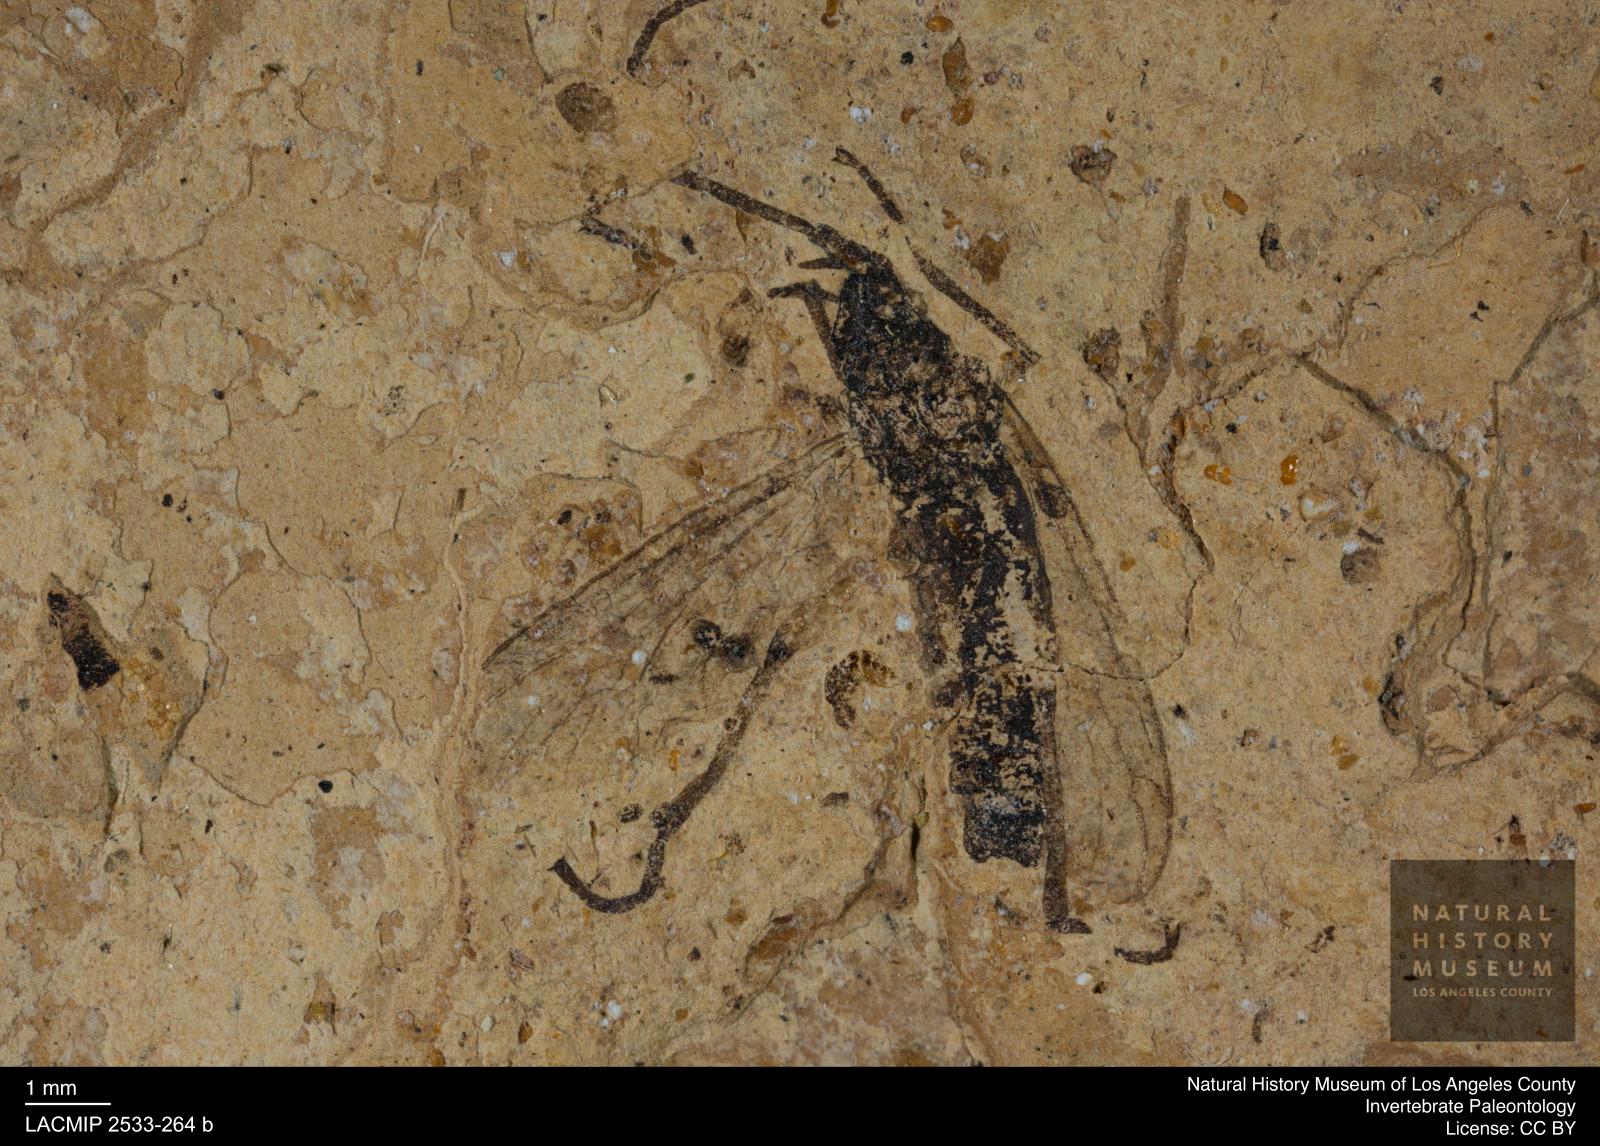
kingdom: Animalia
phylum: Arthropoda
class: Insecta
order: Diptera
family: Bibionidae
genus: Plecia
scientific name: Plecia
